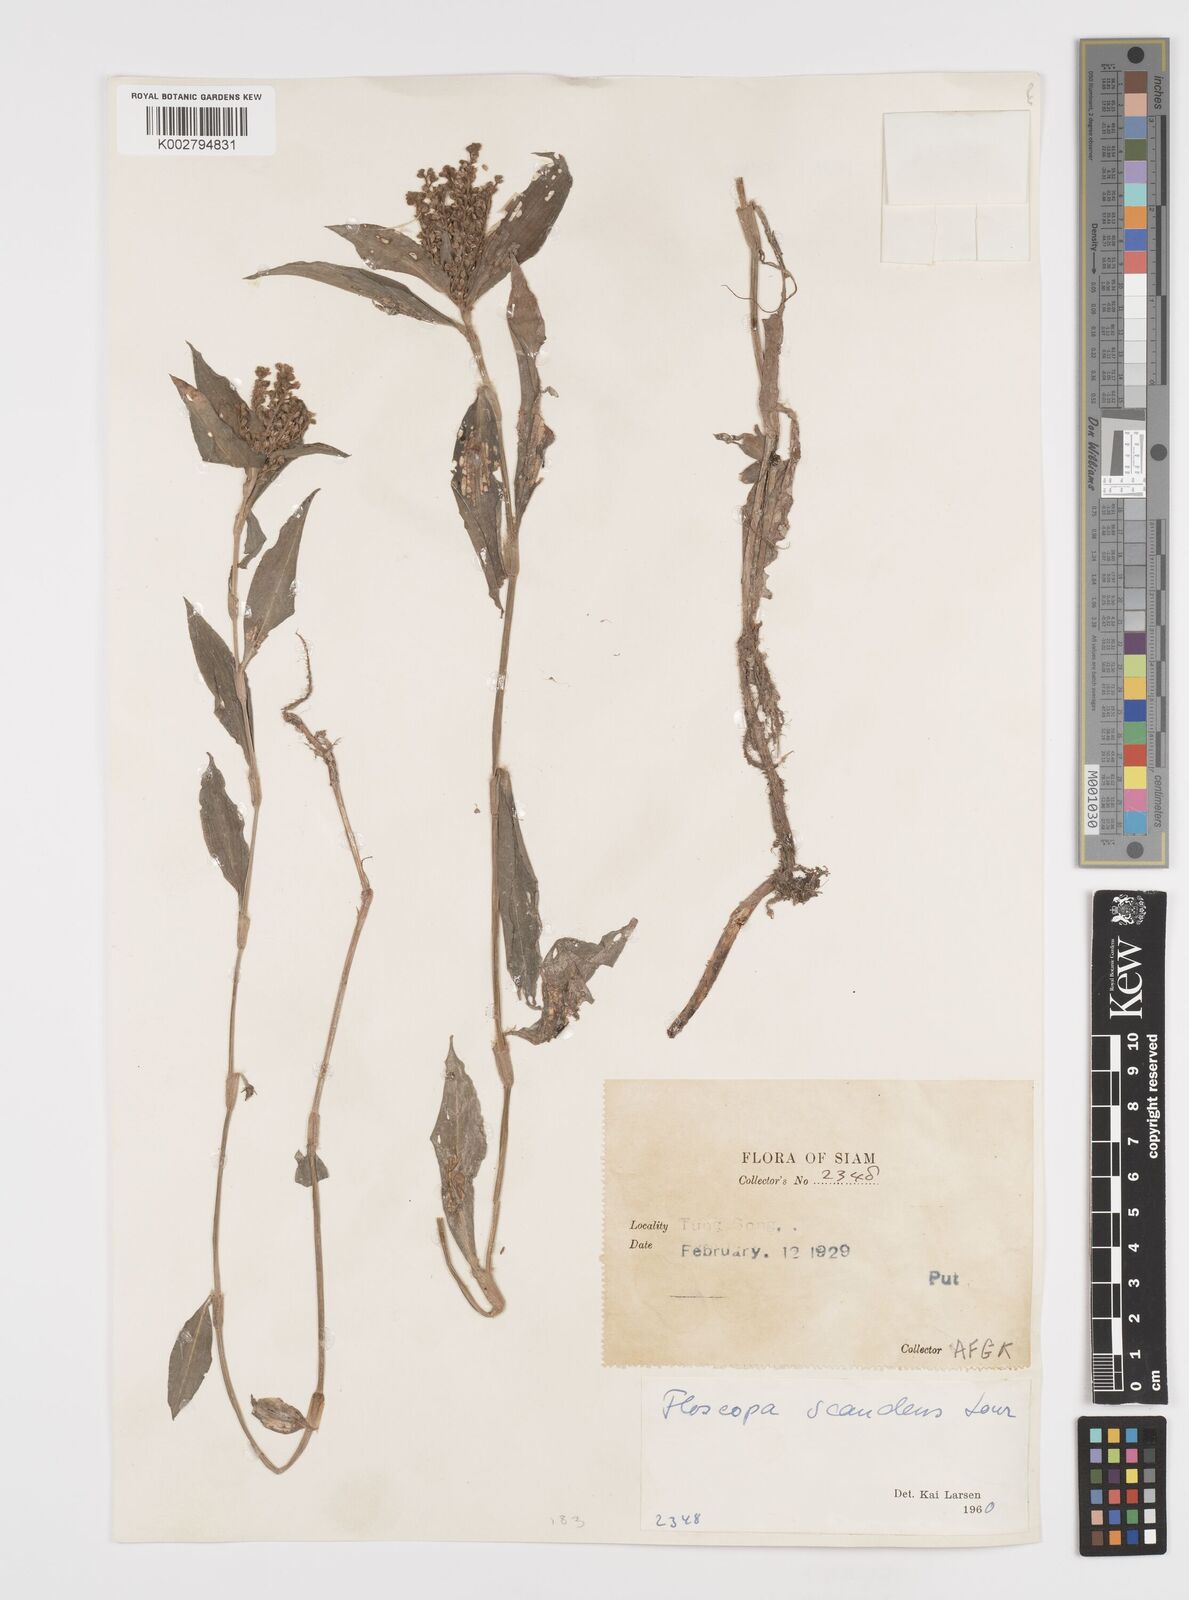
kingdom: Plantae
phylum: Tracheophyta
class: Liliopsida
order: Commelinales
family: Commelinaceae
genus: Floscopa
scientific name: Floscopa scandens
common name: Climbing flower cup
